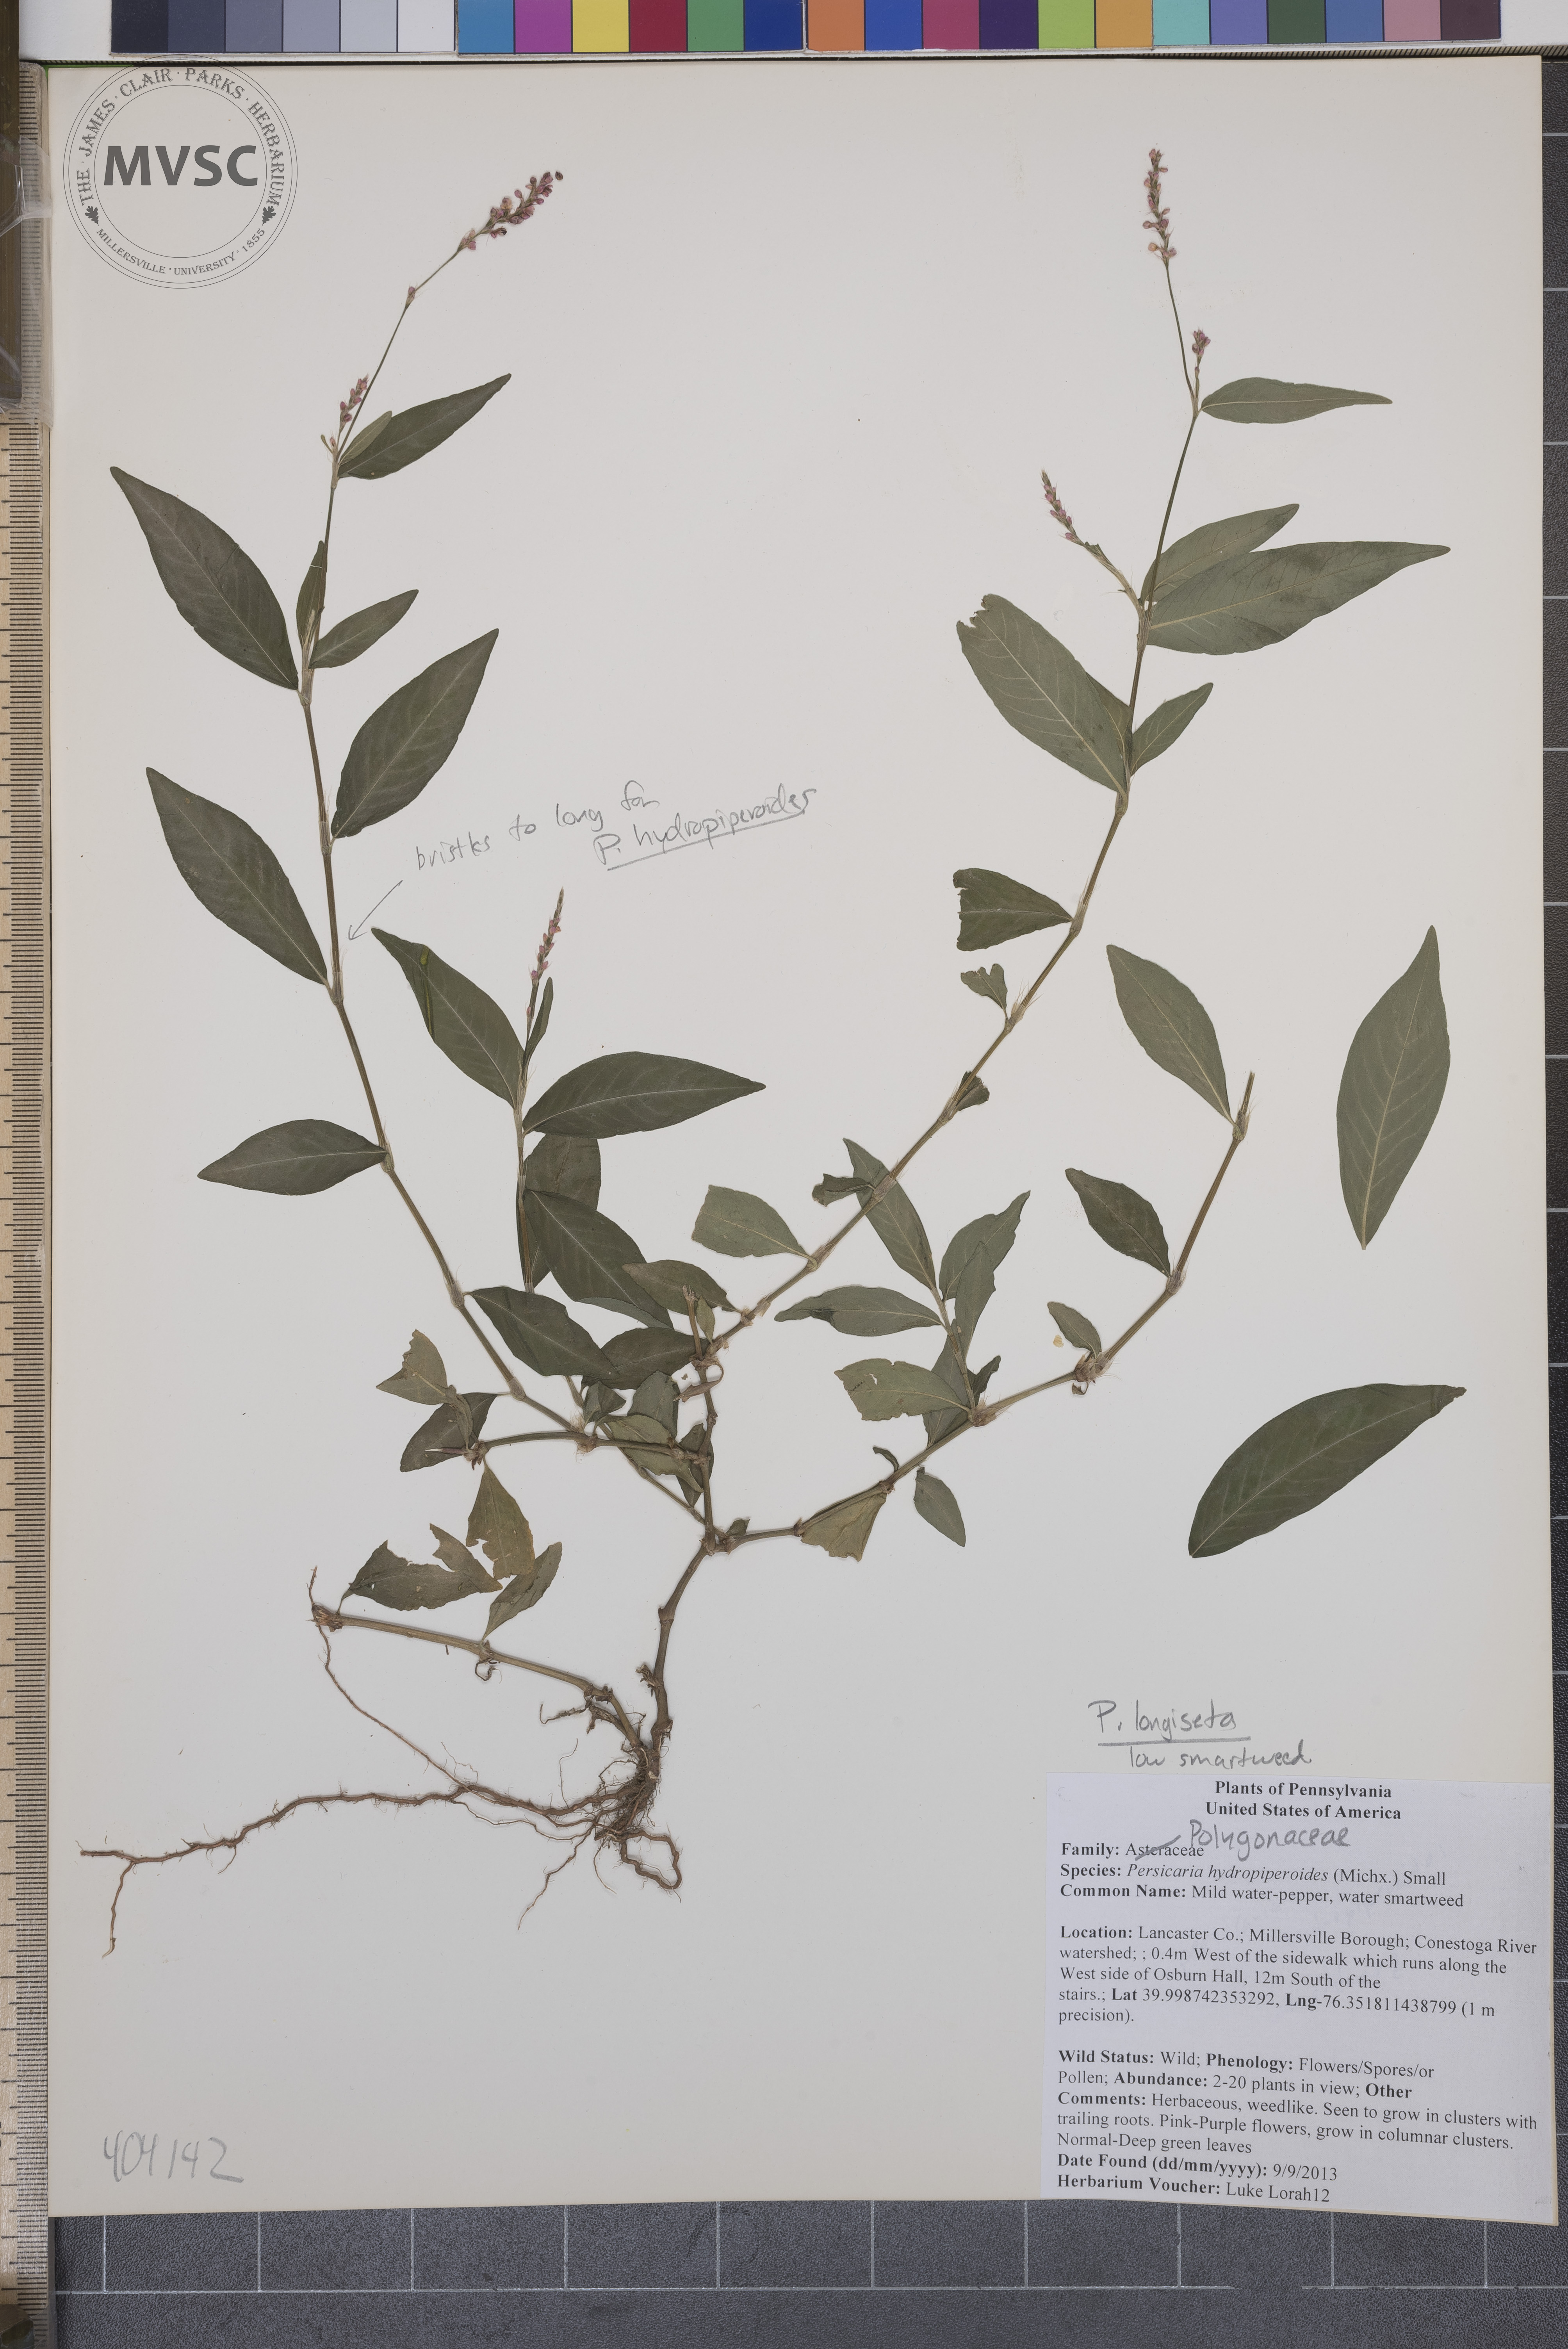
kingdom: Plantae
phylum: Tracheophyta
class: Magnoliopsida
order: Caryophyllales
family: Polygonaceae
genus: Persicaria
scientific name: Persicaria longiseta
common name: Low Smartweed
